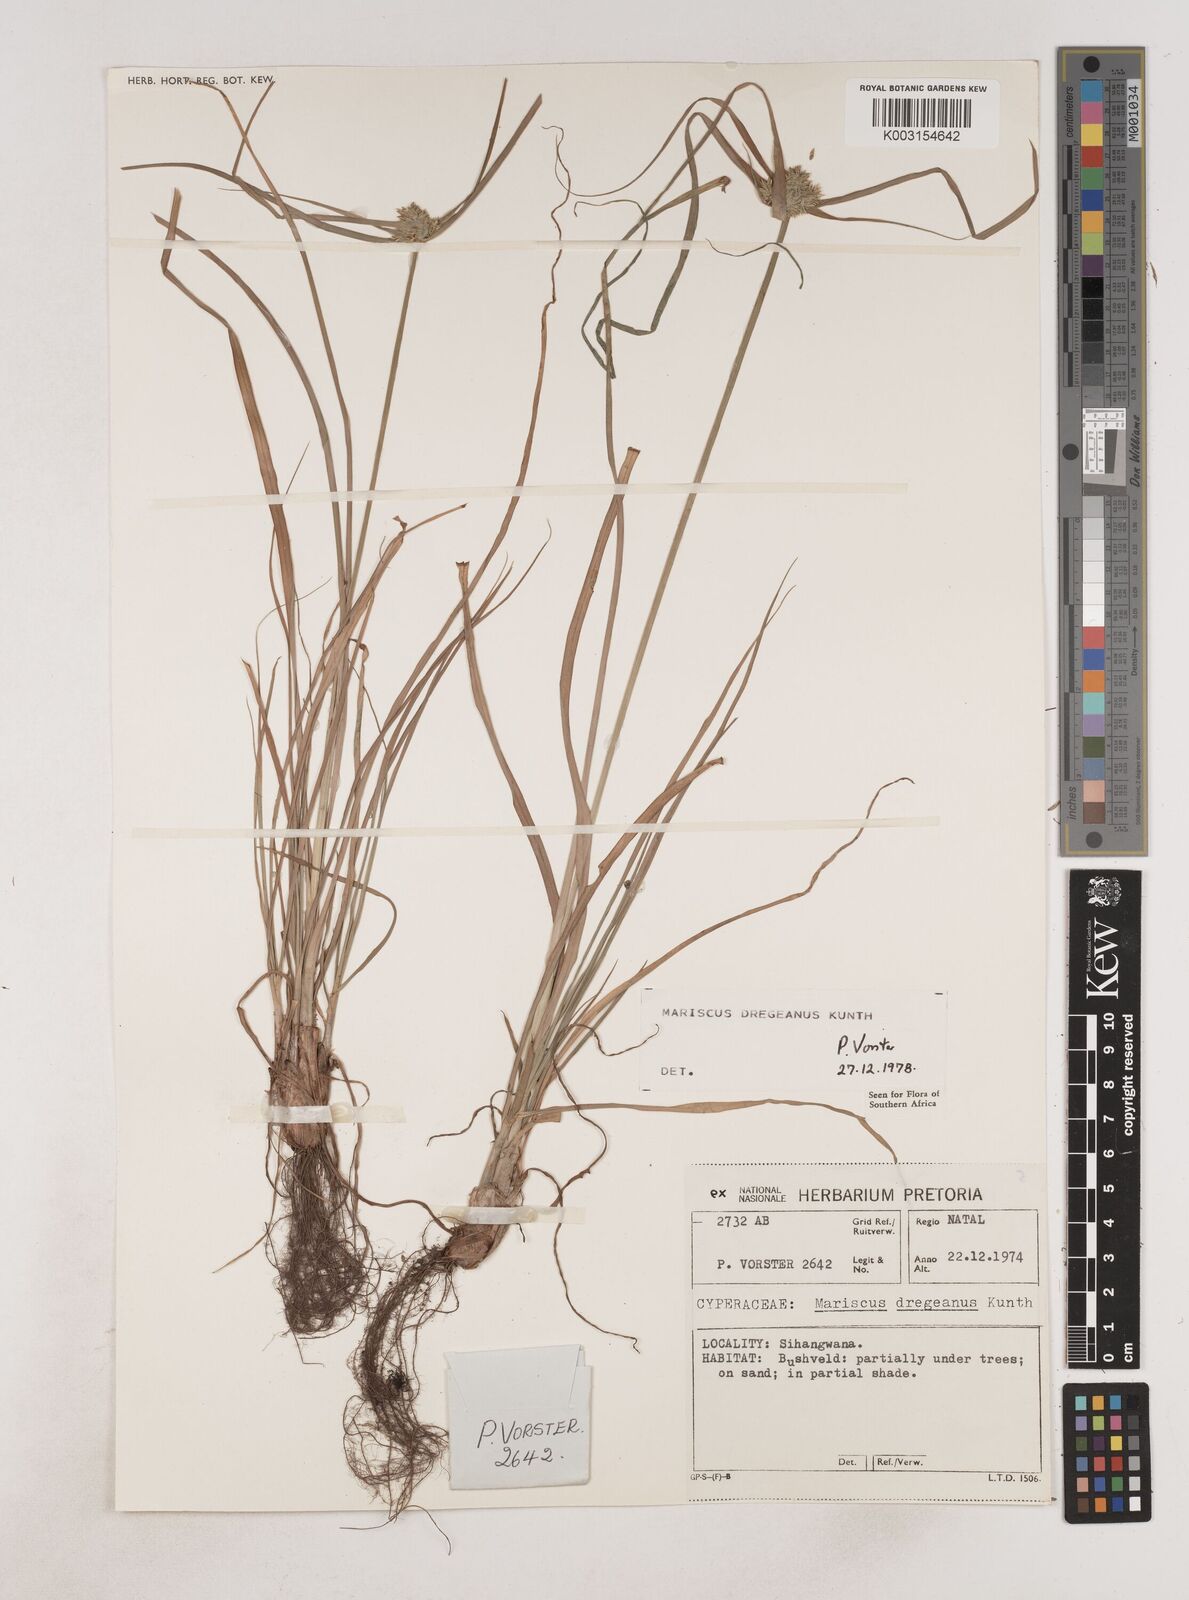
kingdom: Plantae
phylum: Tracheophyta
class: Liliopsida
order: Poales
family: Cyperaceae
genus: Cyperus
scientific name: Cyperus dubius
